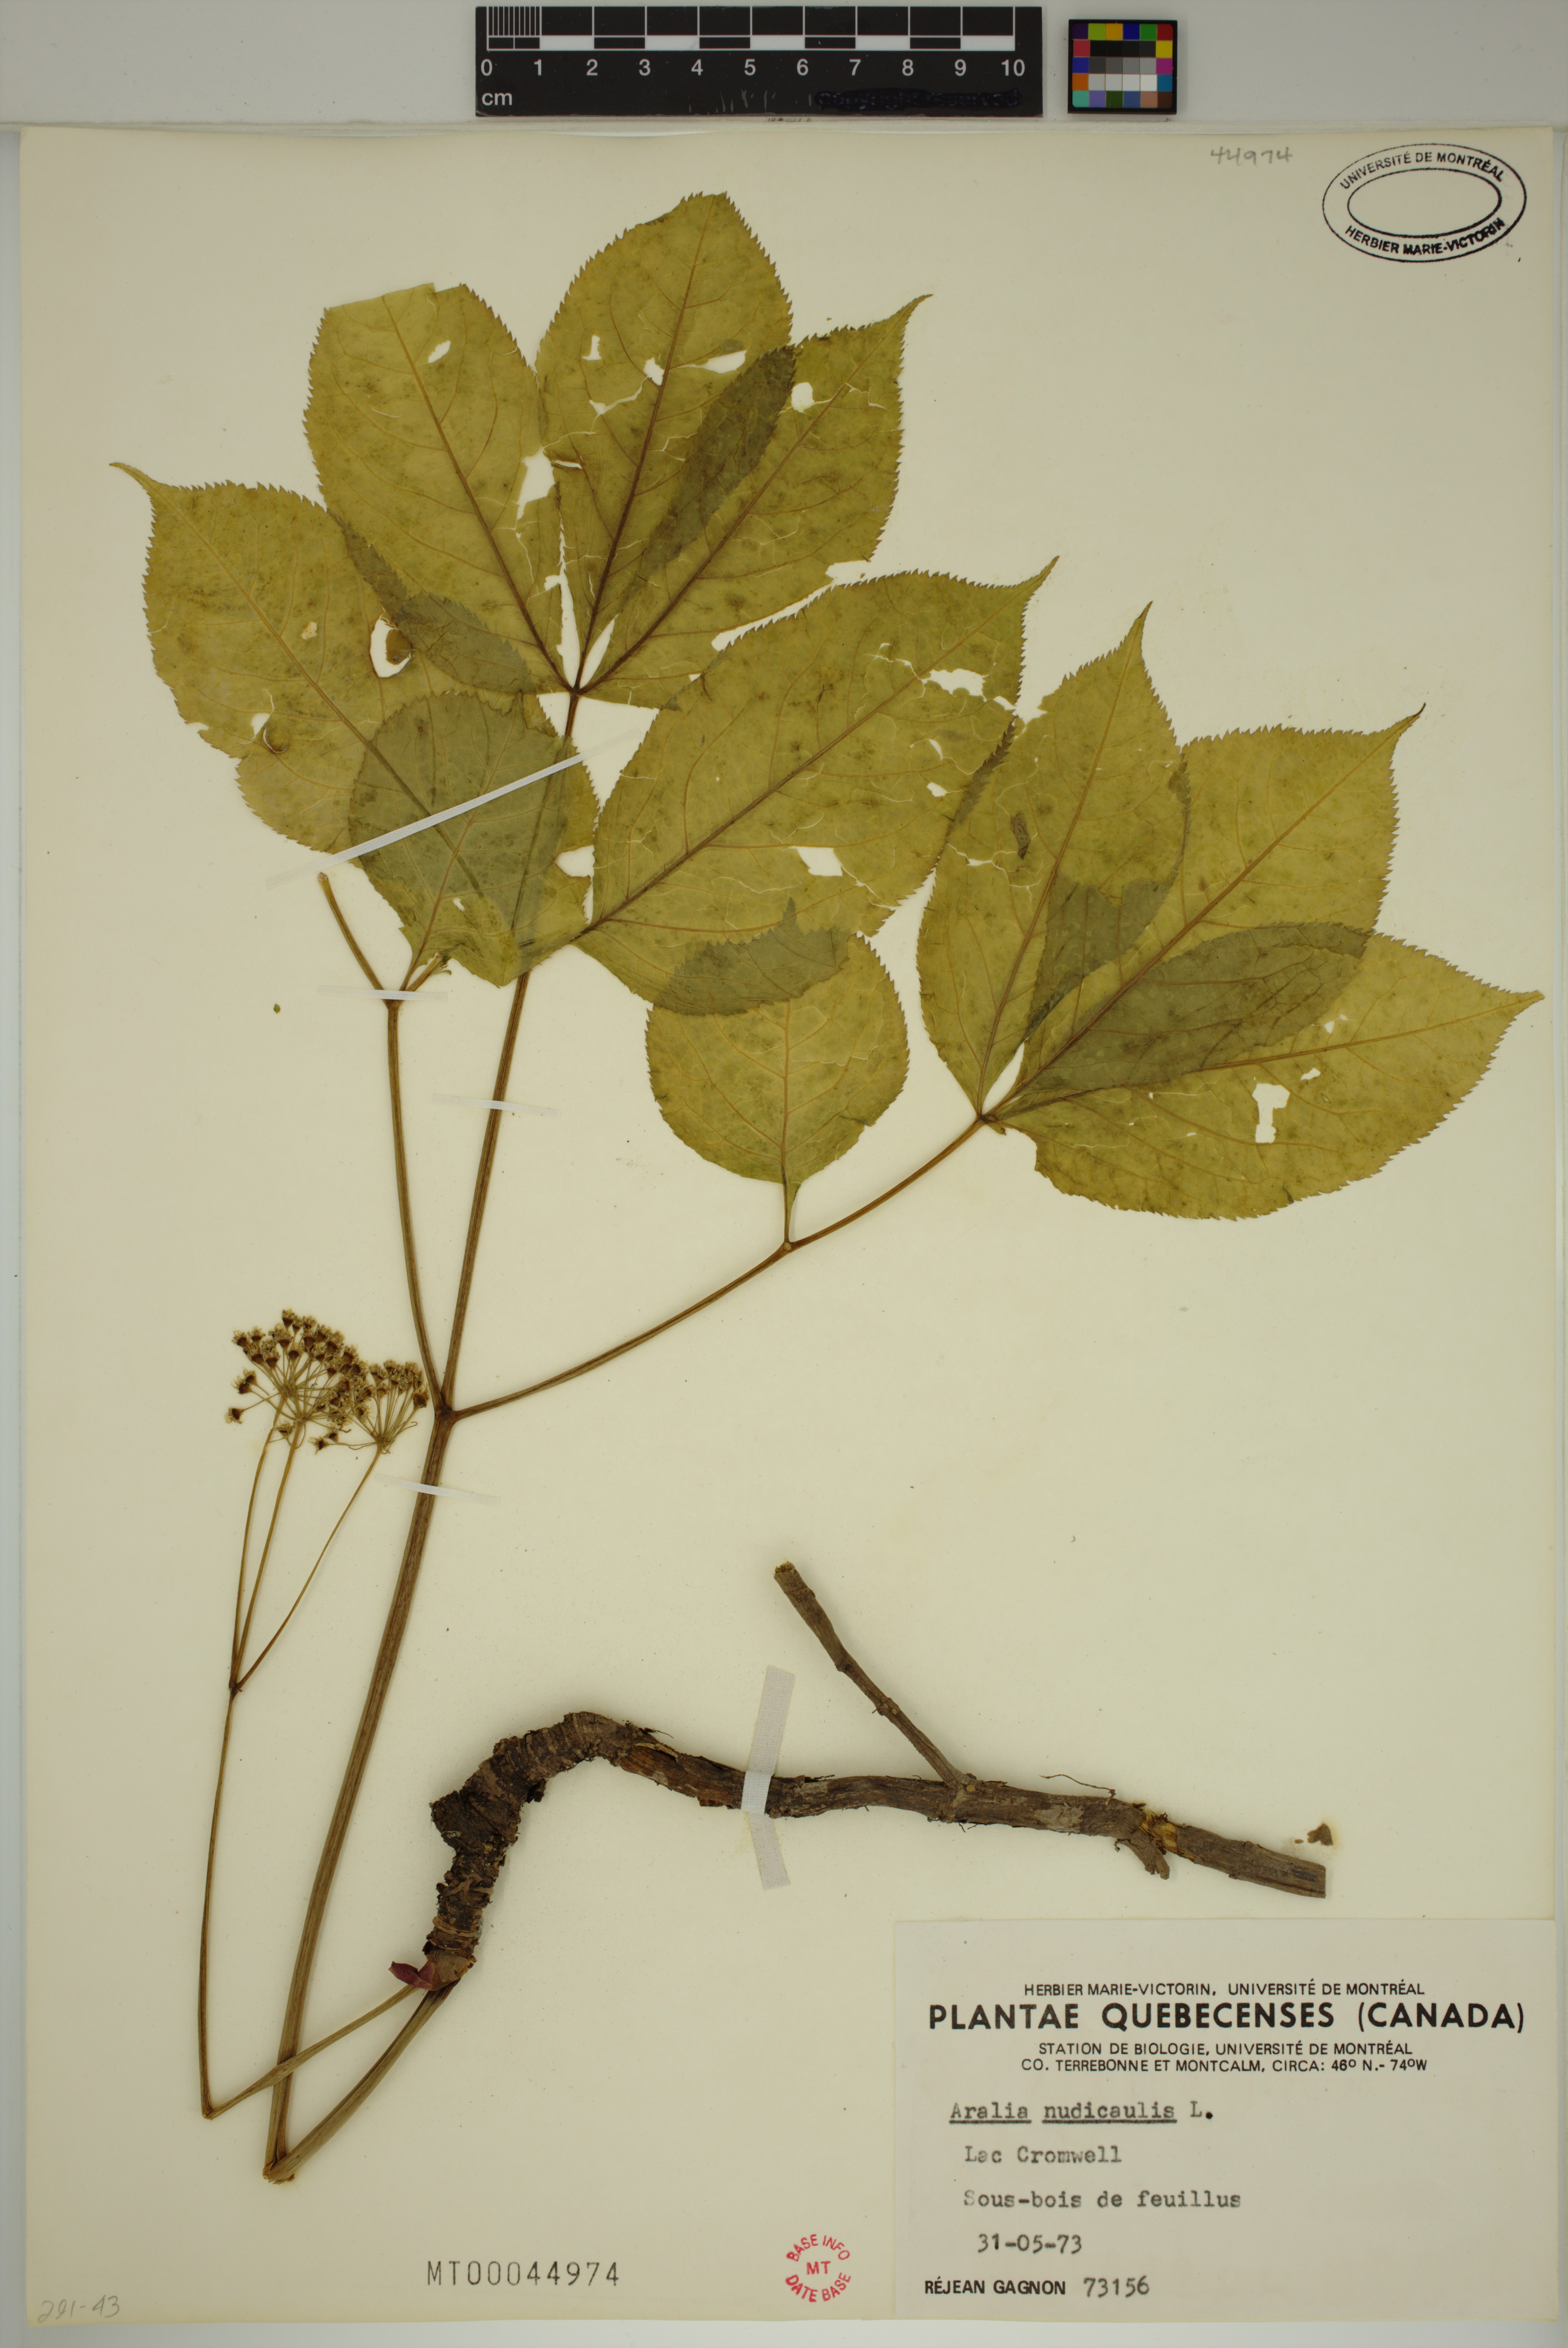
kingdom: Plantae
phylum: Tracheophyta
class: Magnoliopsida
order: Apiales
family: Araliaceae
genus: Aralia
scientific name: Aralia nudicaulis
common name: Wild sarsaparilla
